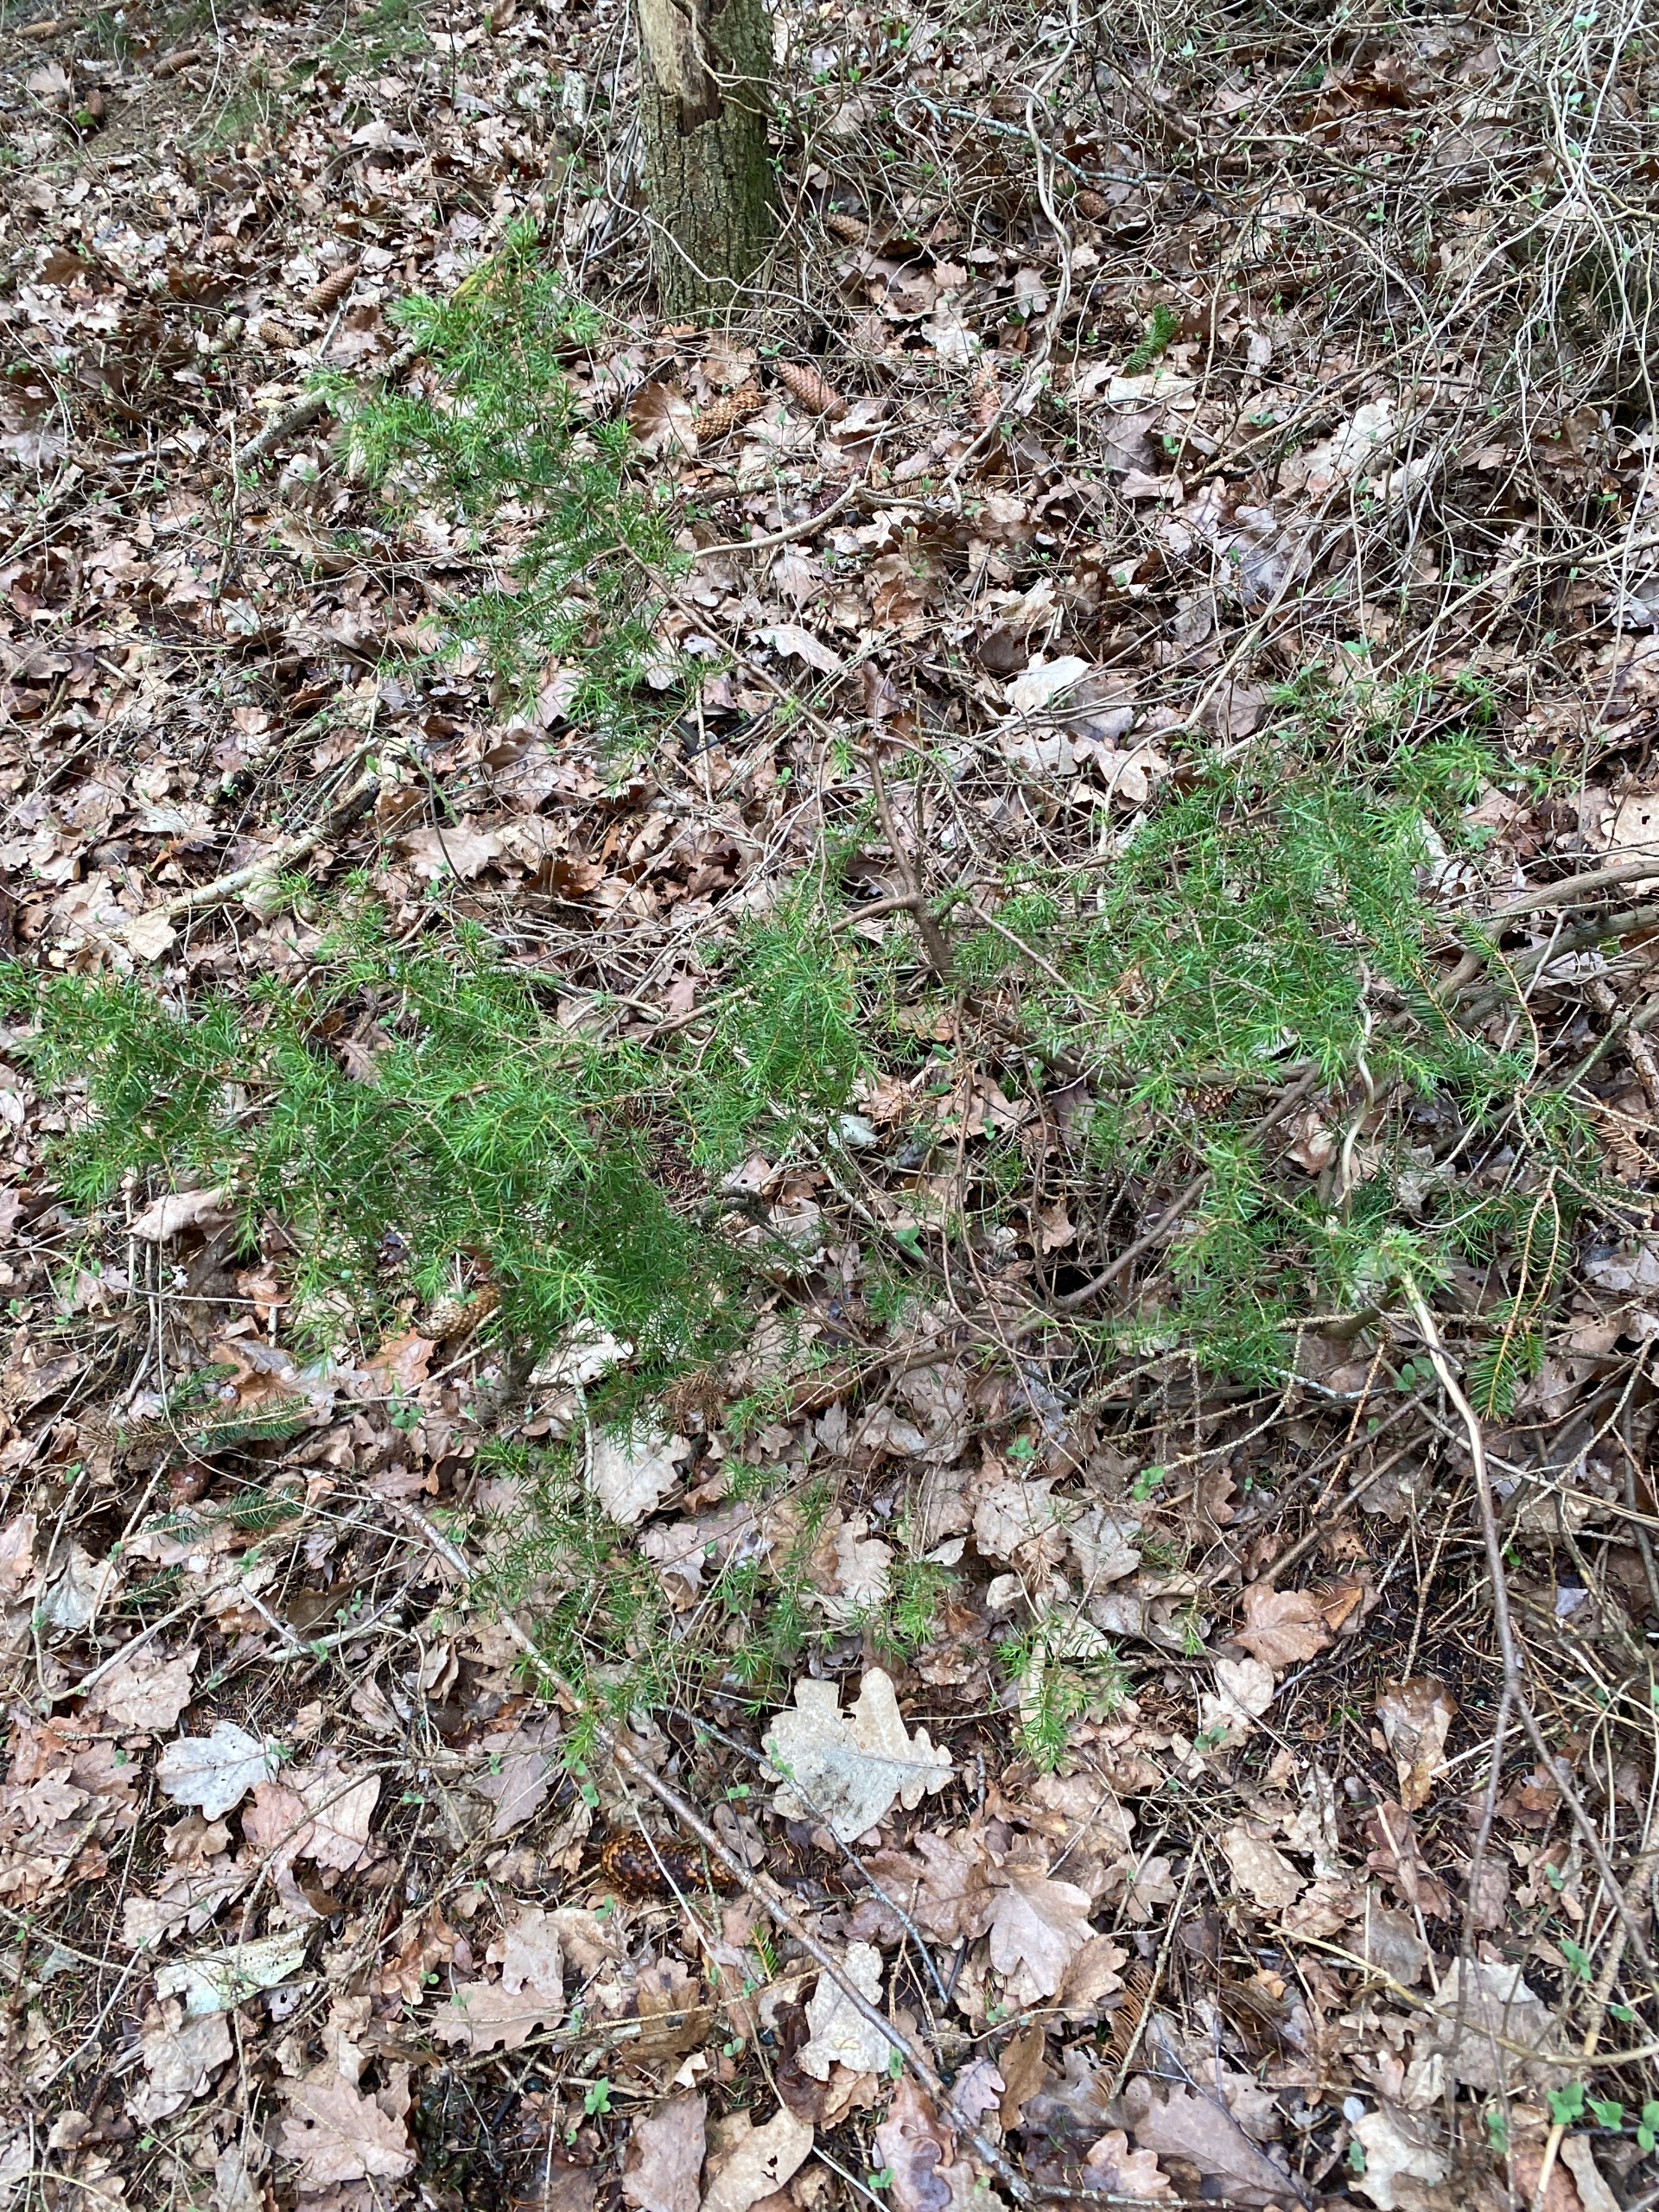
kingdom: Plantae
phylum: Tracheophyta
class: Pinopsida
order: Pinales
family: Cupressaceae
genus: Juniperus
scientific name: Juniperus communis
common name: Almindelig ene
